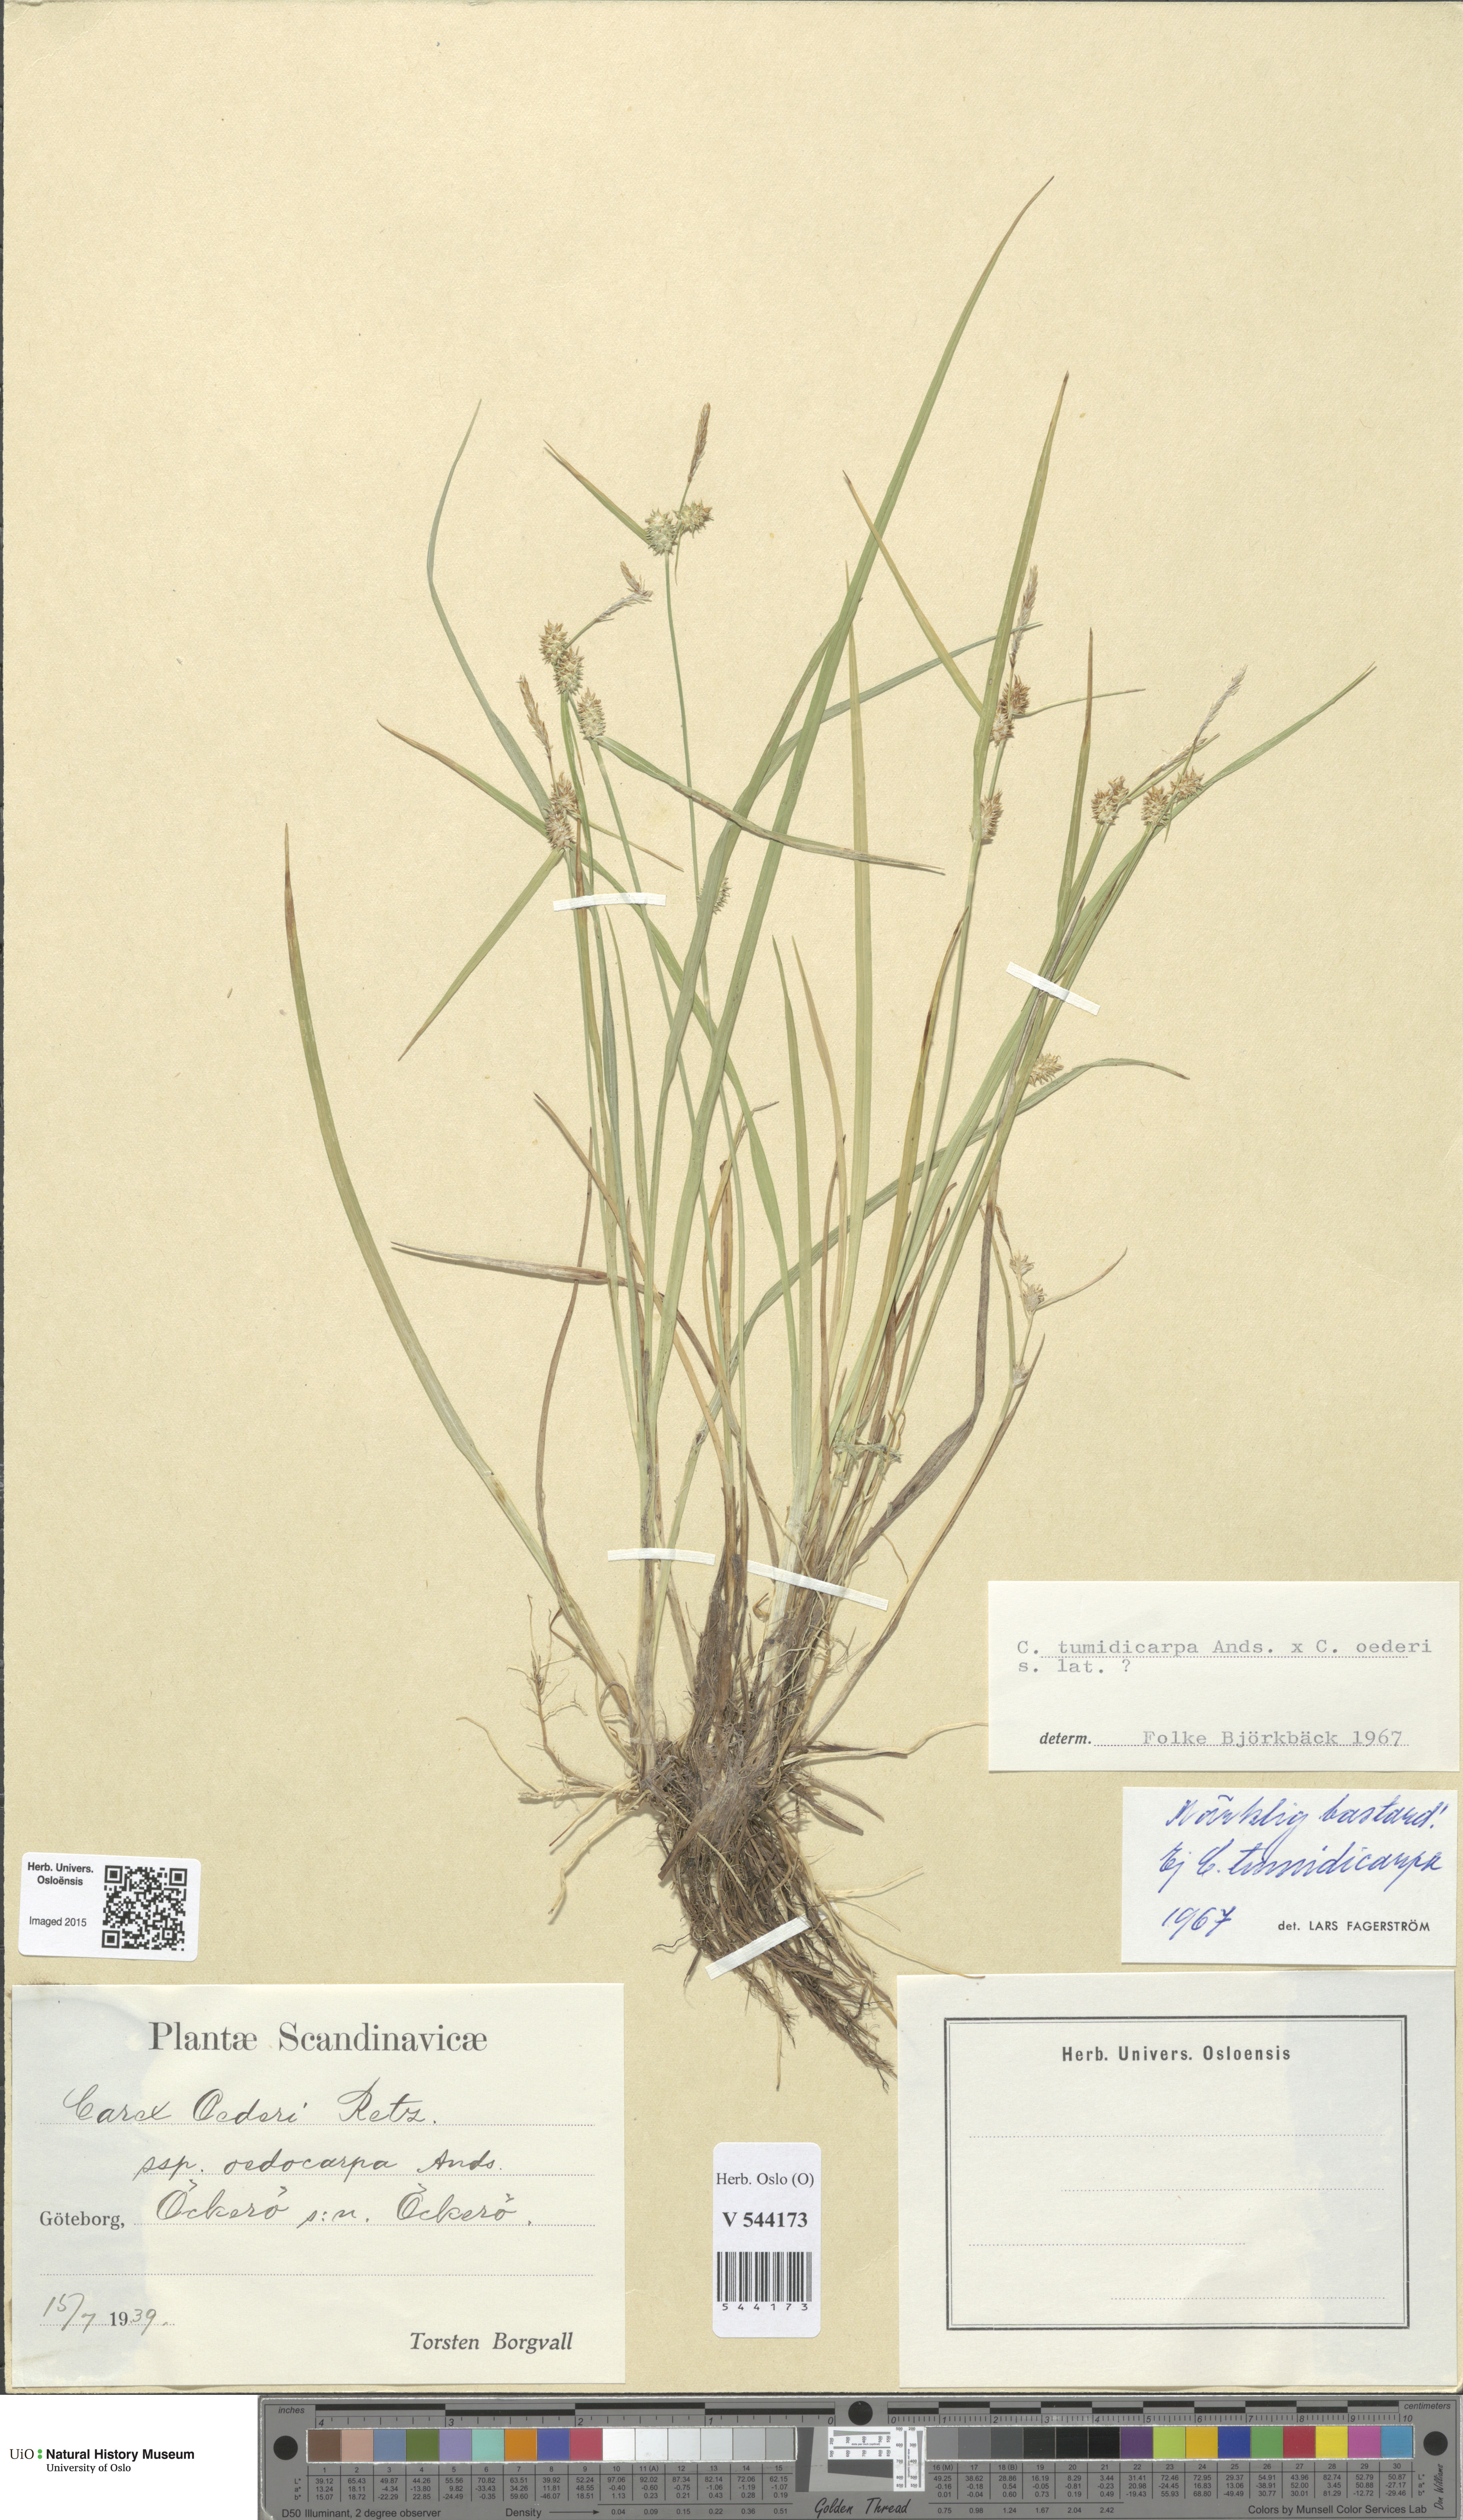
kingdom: Plantae
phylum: Tracheophyta
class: Liliopsida
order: Poales
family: Cyperaceae
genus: Carex
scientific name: Carex
